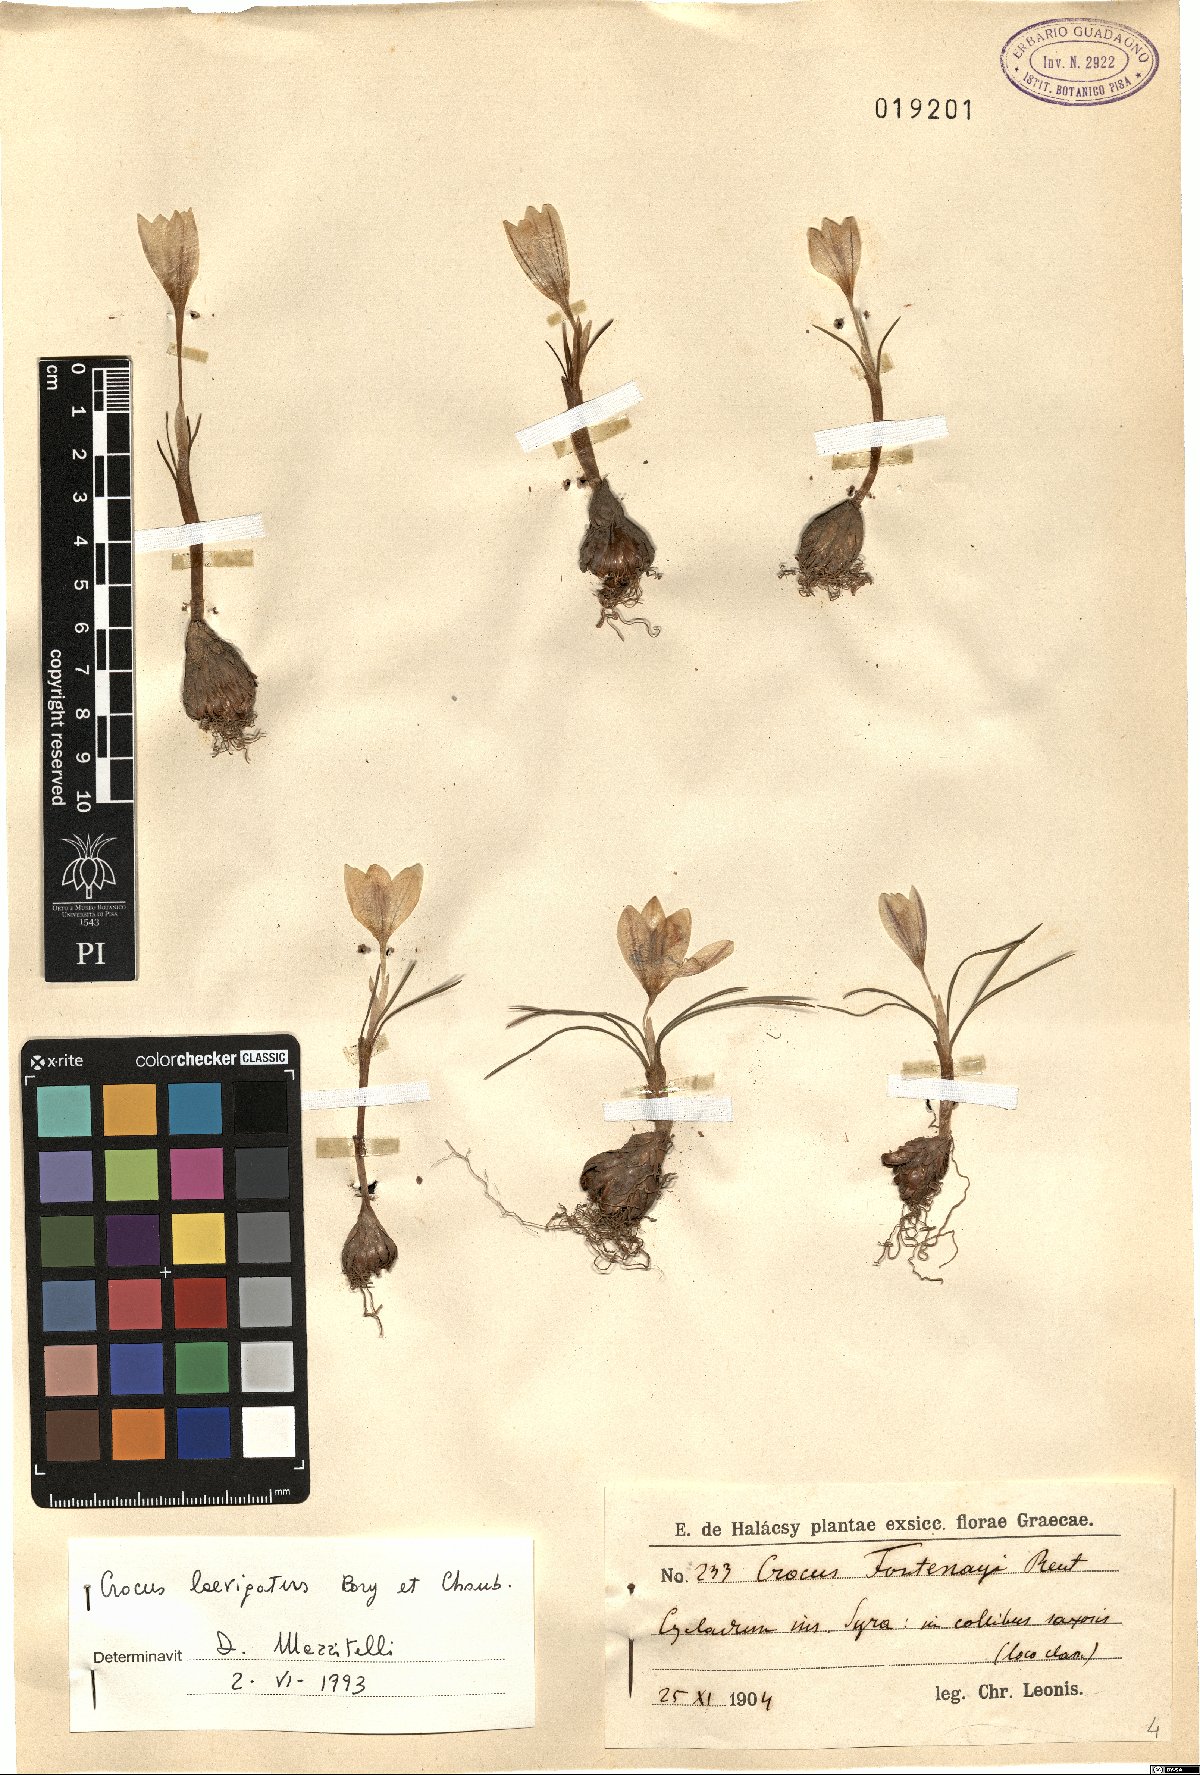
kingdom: Plantae
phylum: Tracheophyta
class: Liliopsida
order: Asparagales
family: Iridaceae
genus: Crocus
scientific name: Crocus laevigatus
